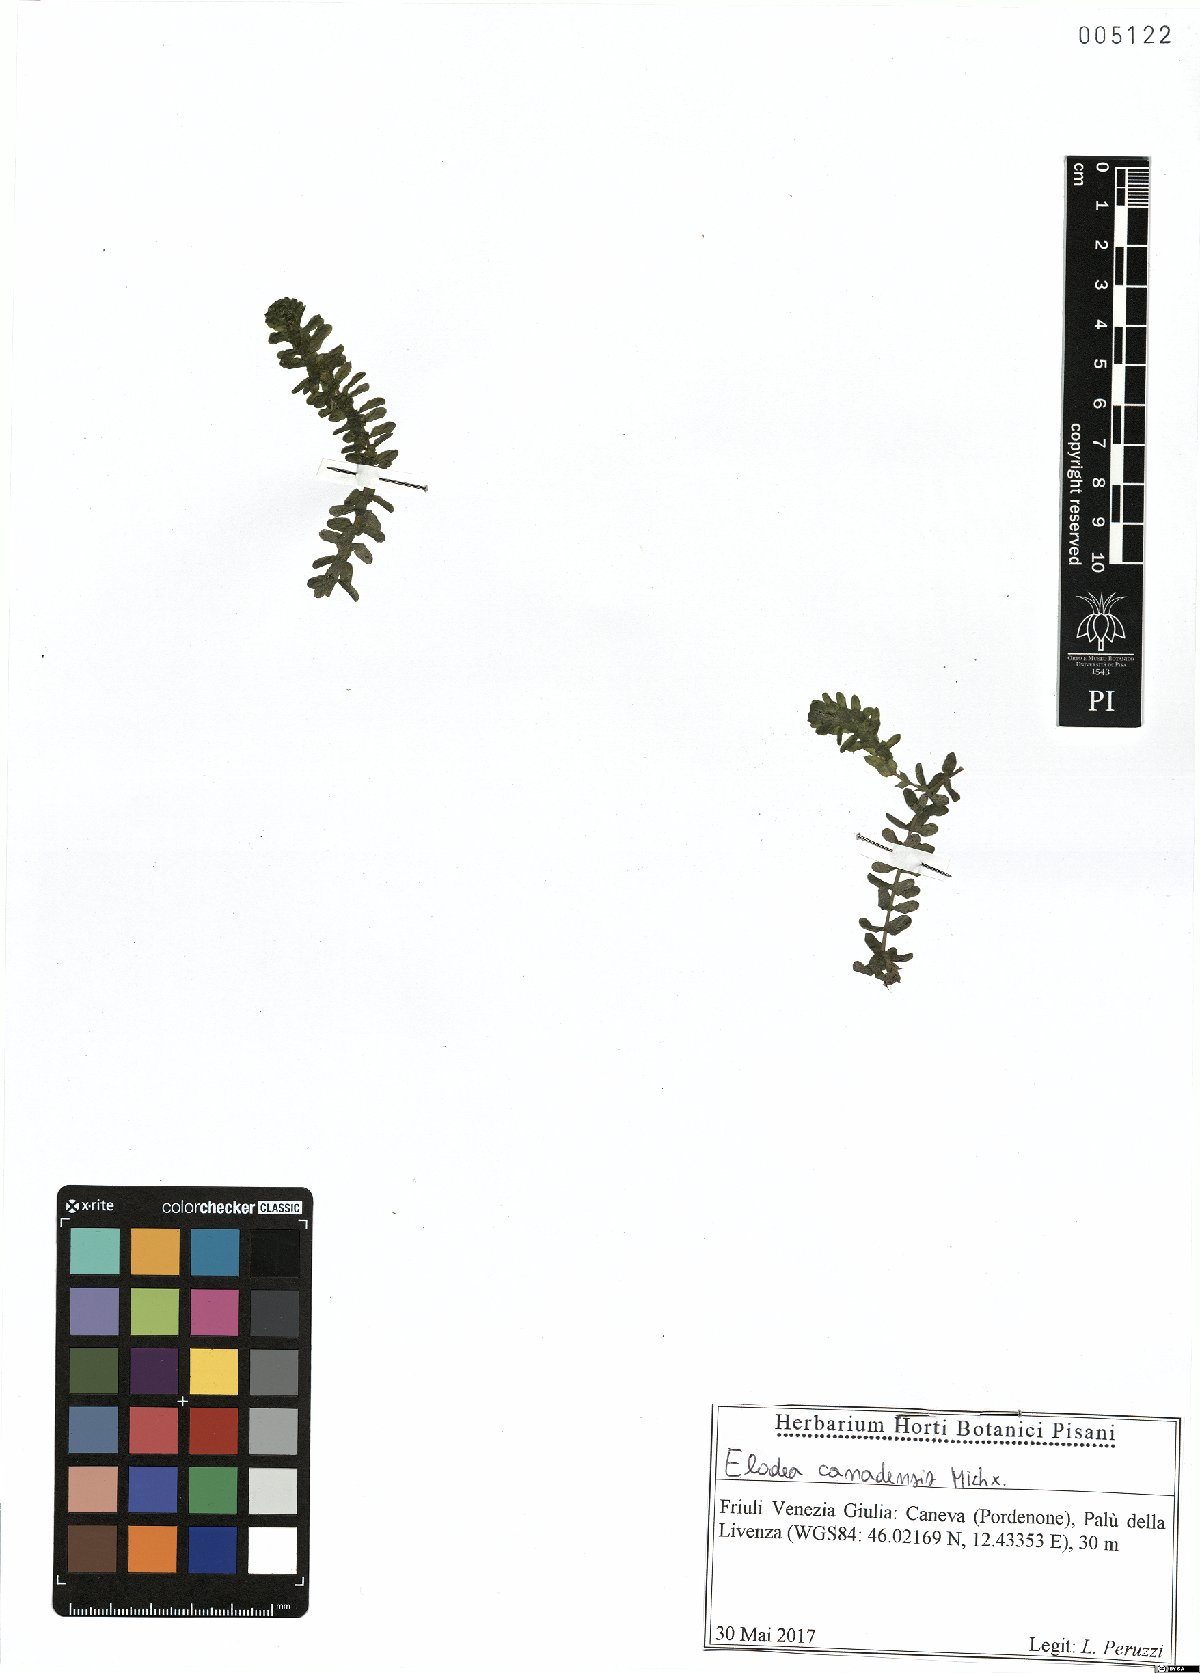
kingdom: Plantae
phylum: Tracheophyta
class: Liliopsida
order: Alismatales
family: Hydrocharitaceae
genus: Elodea
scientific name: Elodea canadensis
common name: Canadian waterweed
